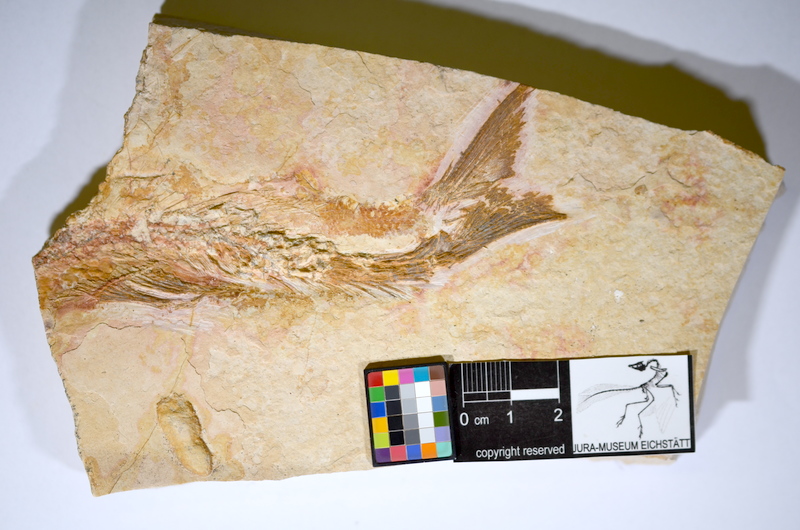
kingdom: Animalia
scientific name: Animalia
